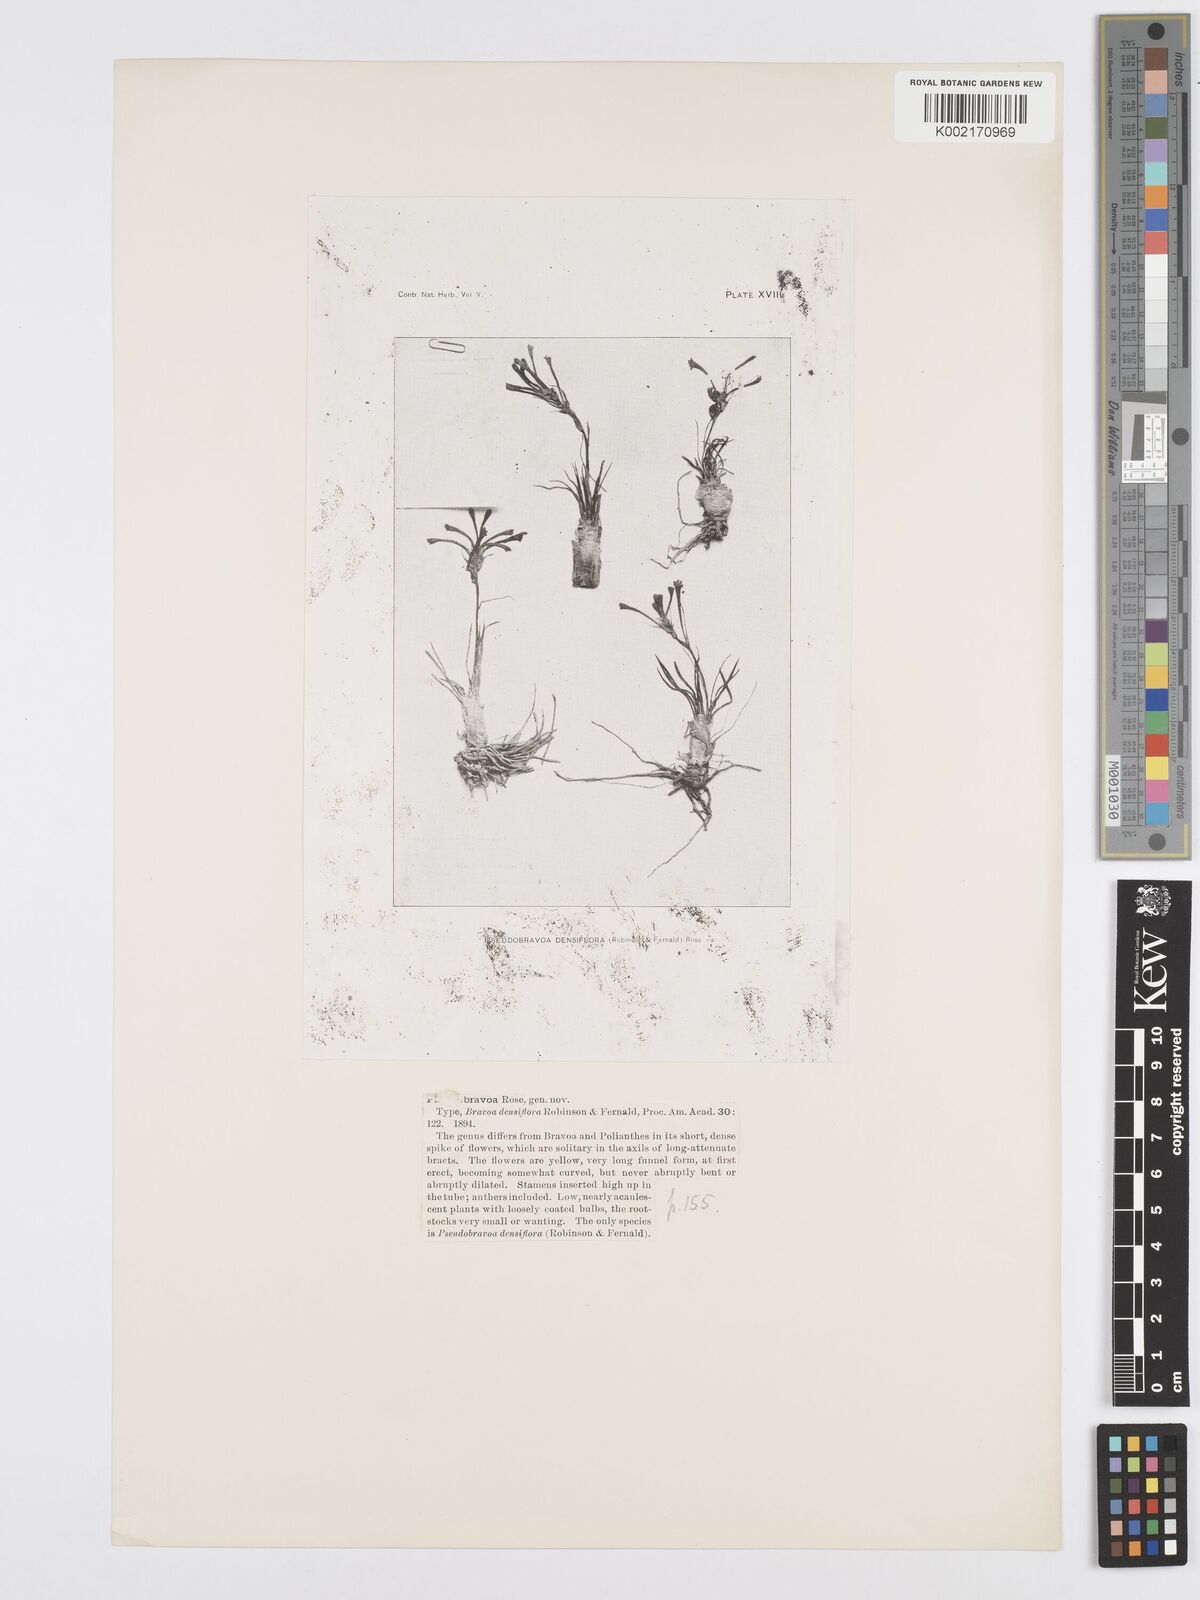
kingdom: Plantae
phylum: Tracheophyta
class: Liliopsida
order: Asparagales
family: Asparagaceae
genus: Agave
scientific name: Agave confertiflora
